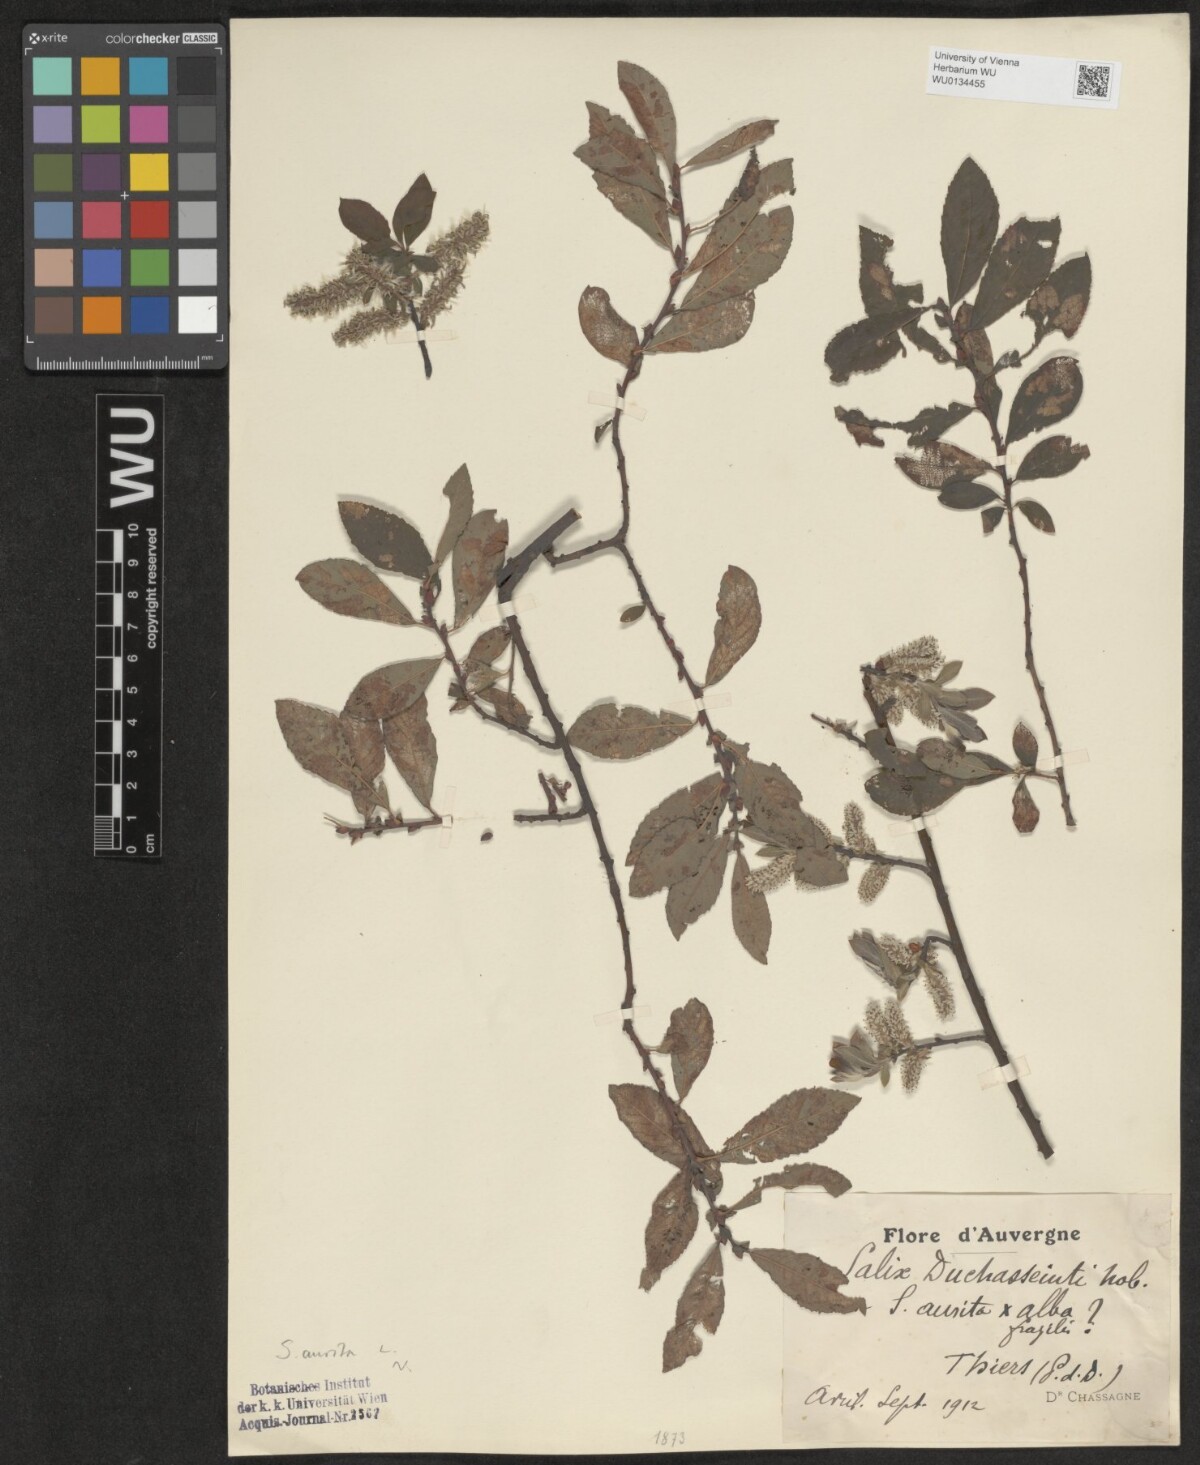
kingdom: Plantae
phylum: Tracheophyta
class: Magnoliopsida
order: Malpighiales
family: Salicaceae
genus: Salix
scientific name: Salix aurita
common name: Eared willow
